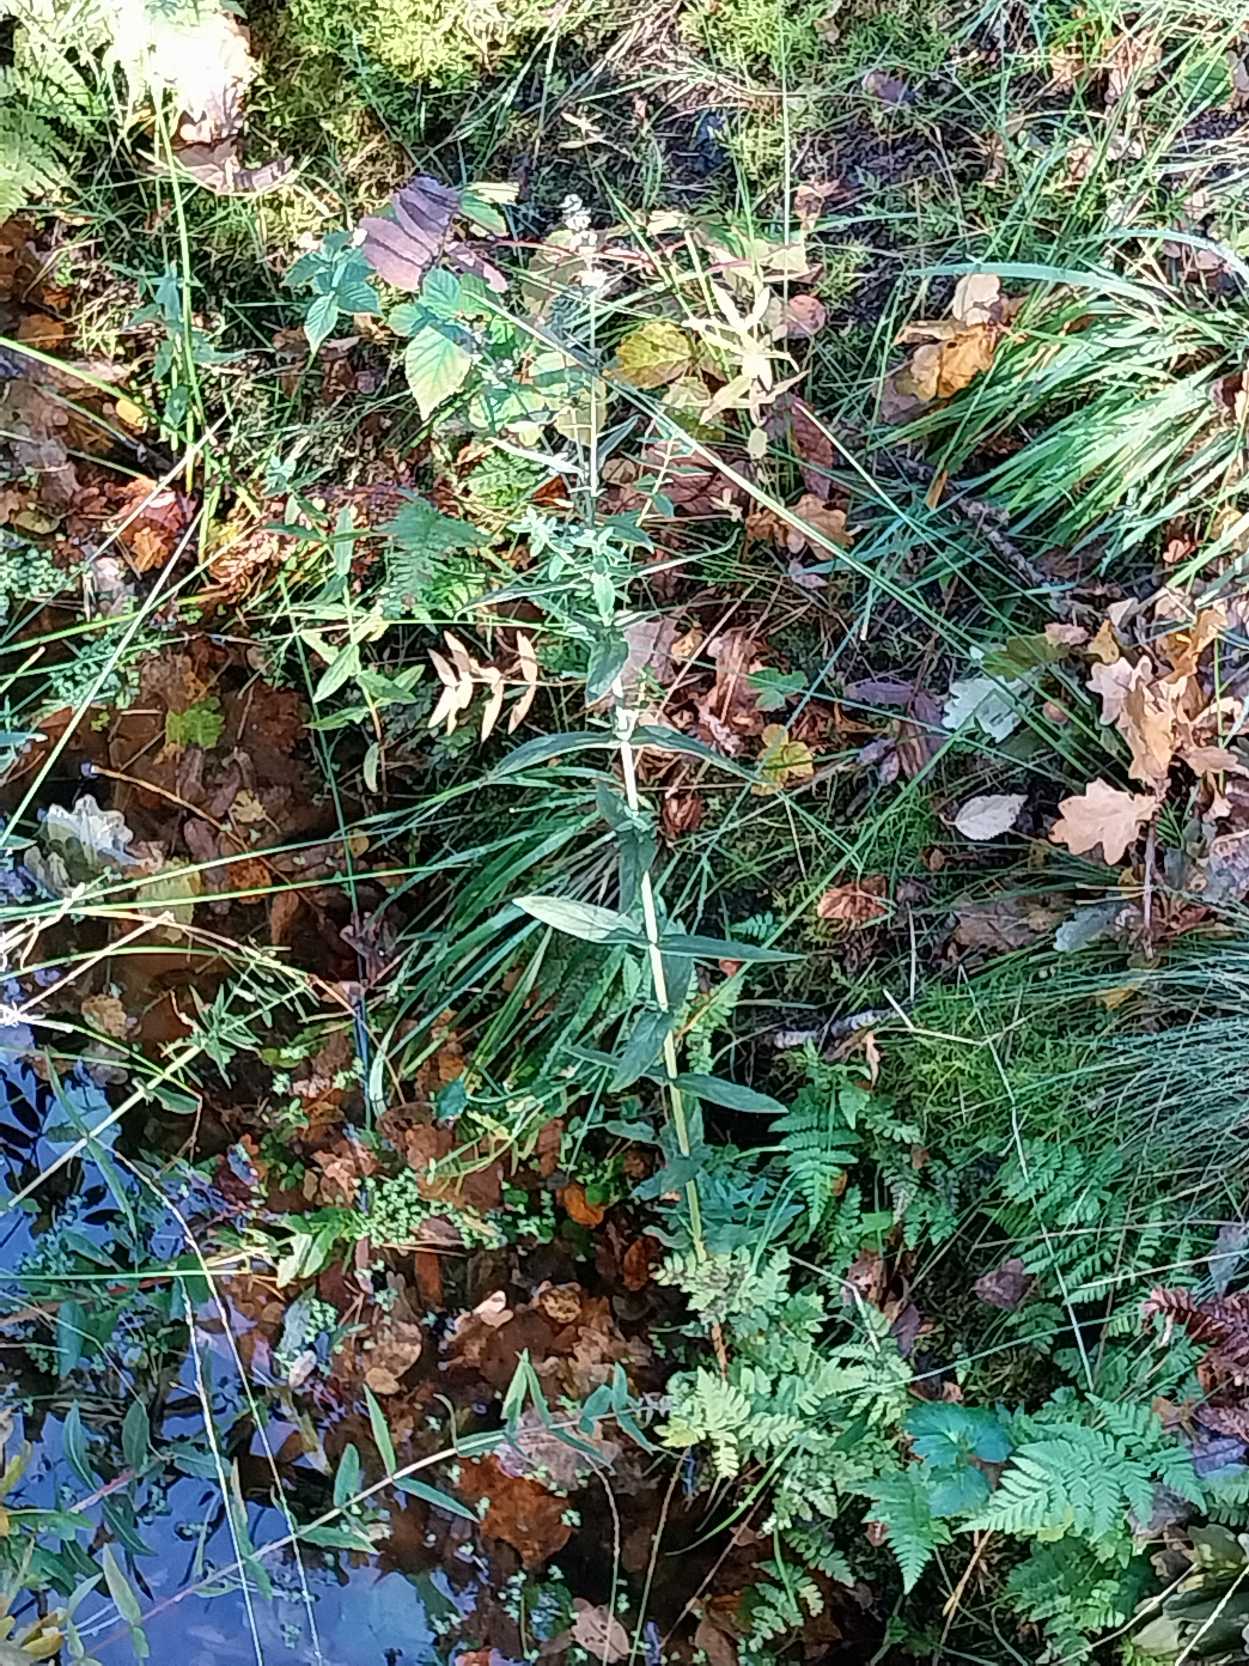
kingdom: Plantae
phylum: Tracheophyta
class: Magnoliopsida
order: Myrtales
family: Lythraceae
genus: Lythrum
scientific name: Lythrum salicaria
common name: Kattehale
